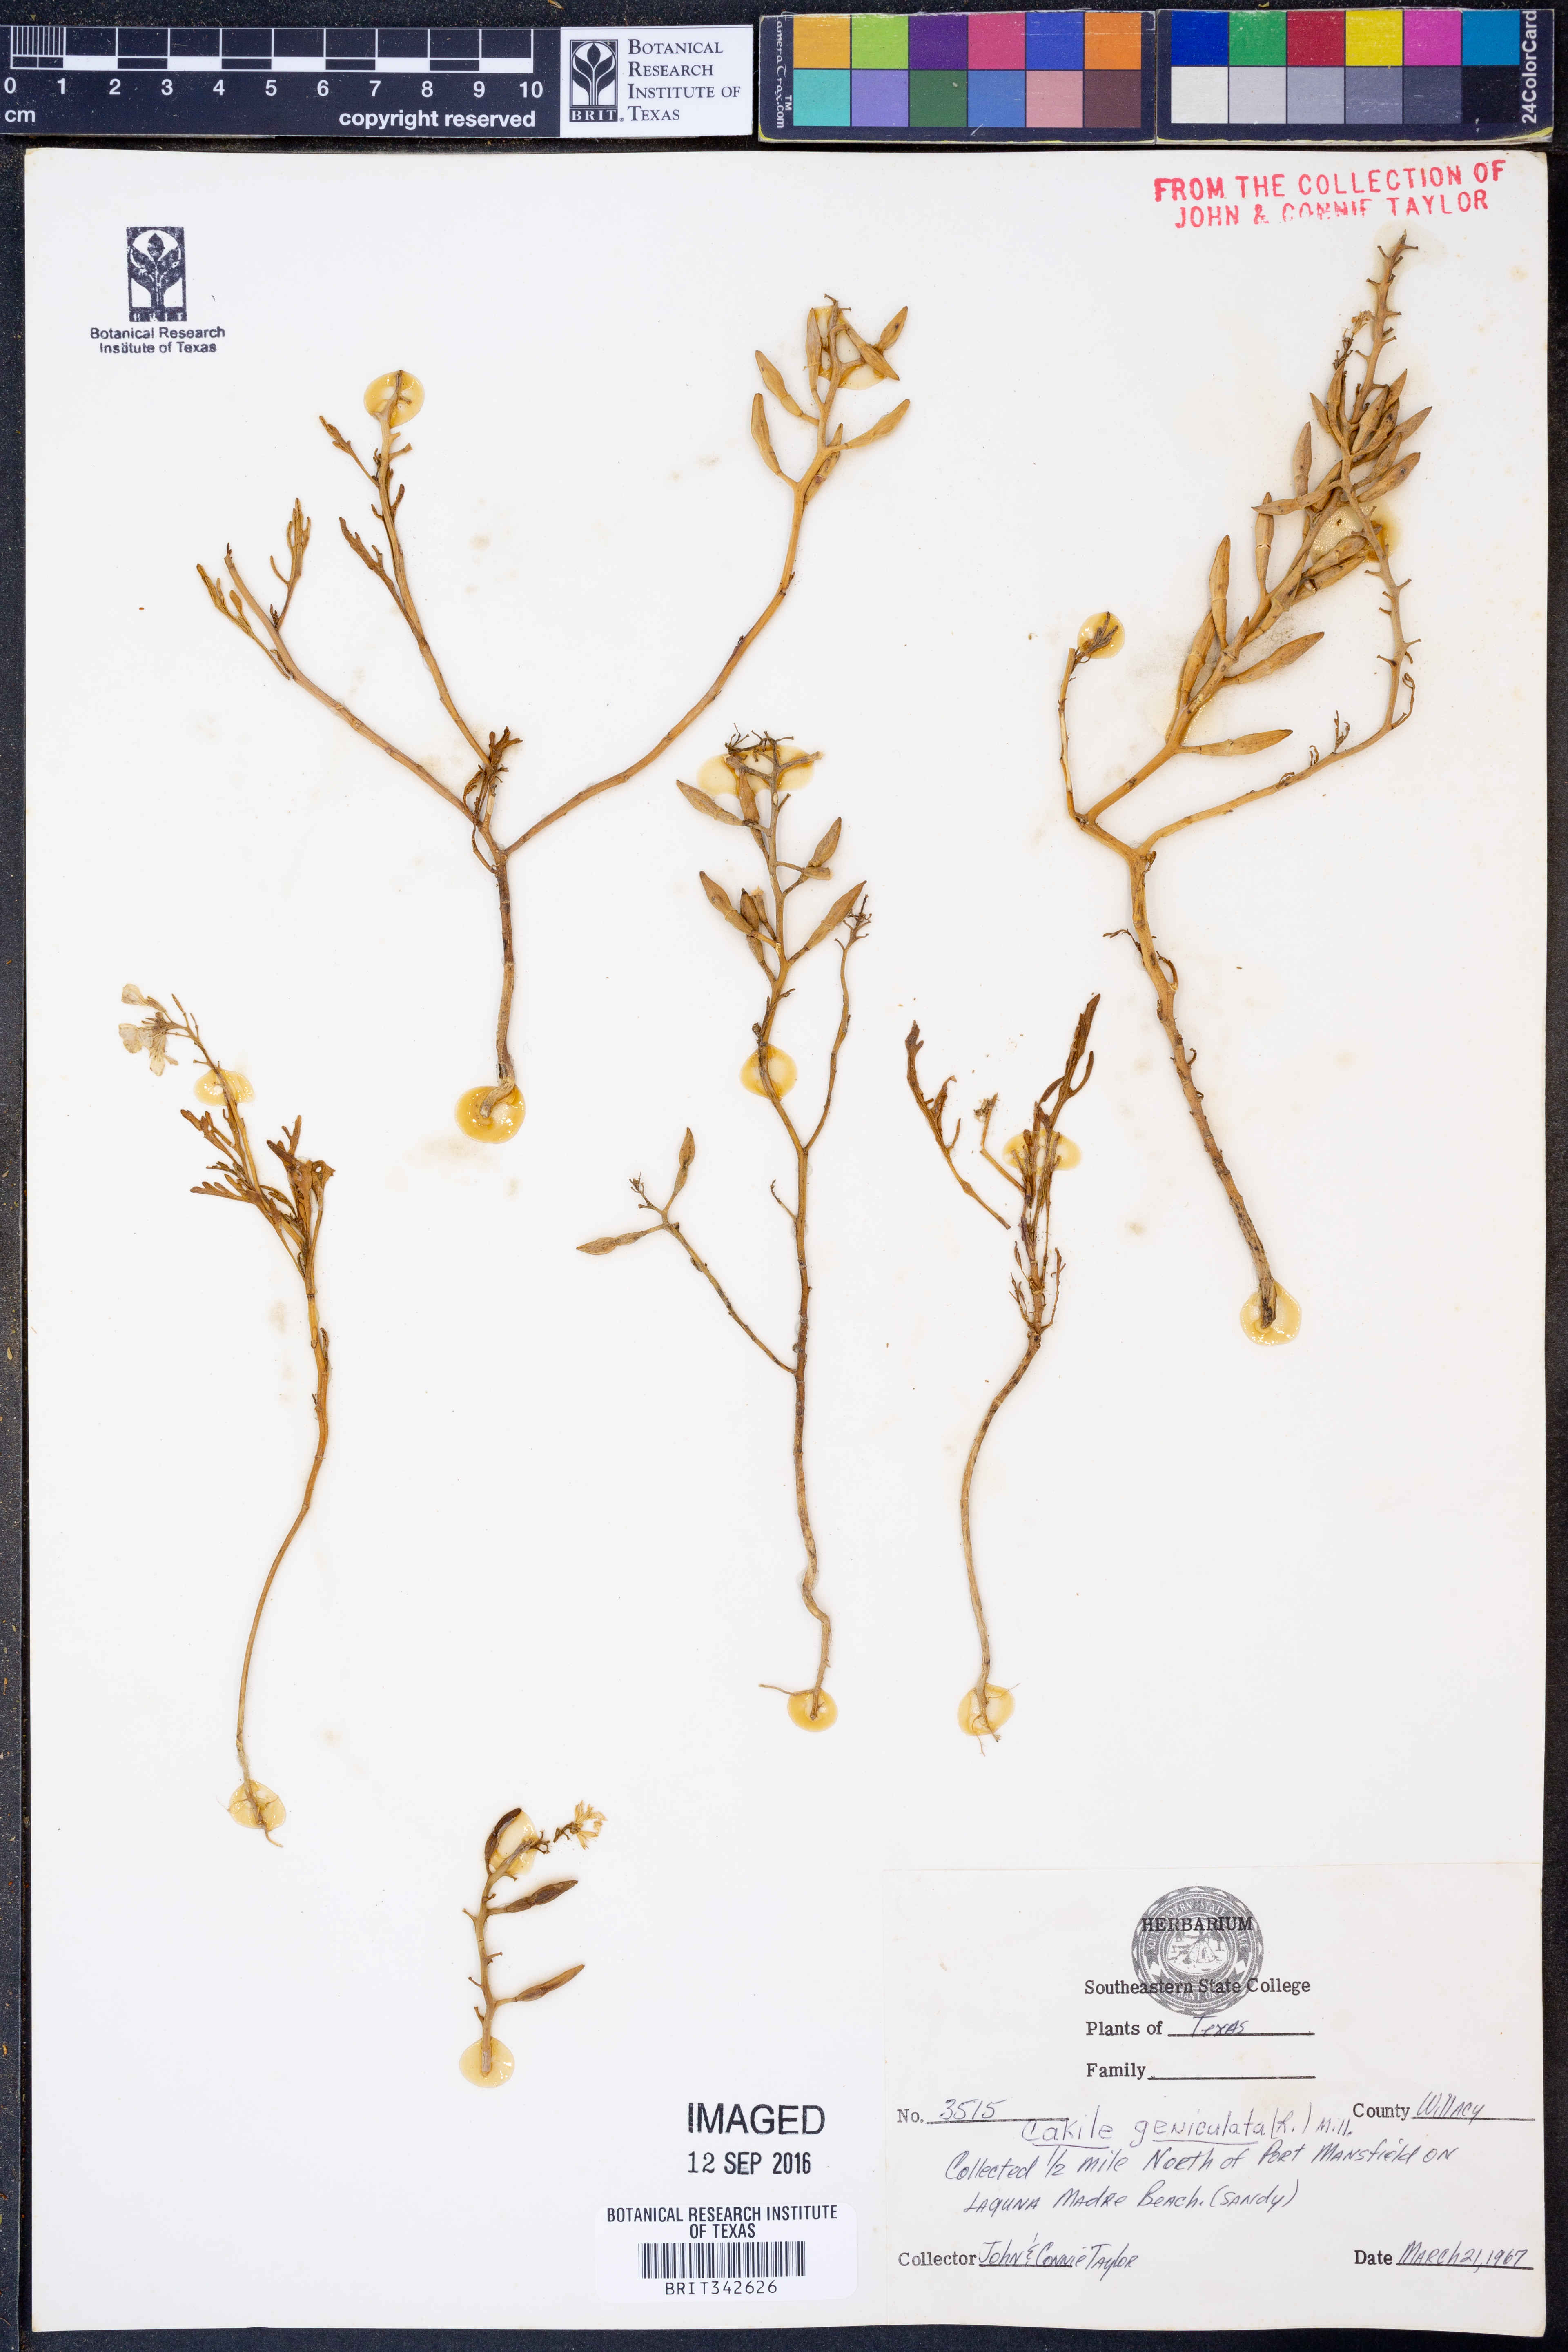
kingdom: Plantae
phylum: Tracheophyta
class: Magnoliopsida
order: Brassicales
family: Brassicaceae
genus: Cakile
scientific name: Cakile geniculata
